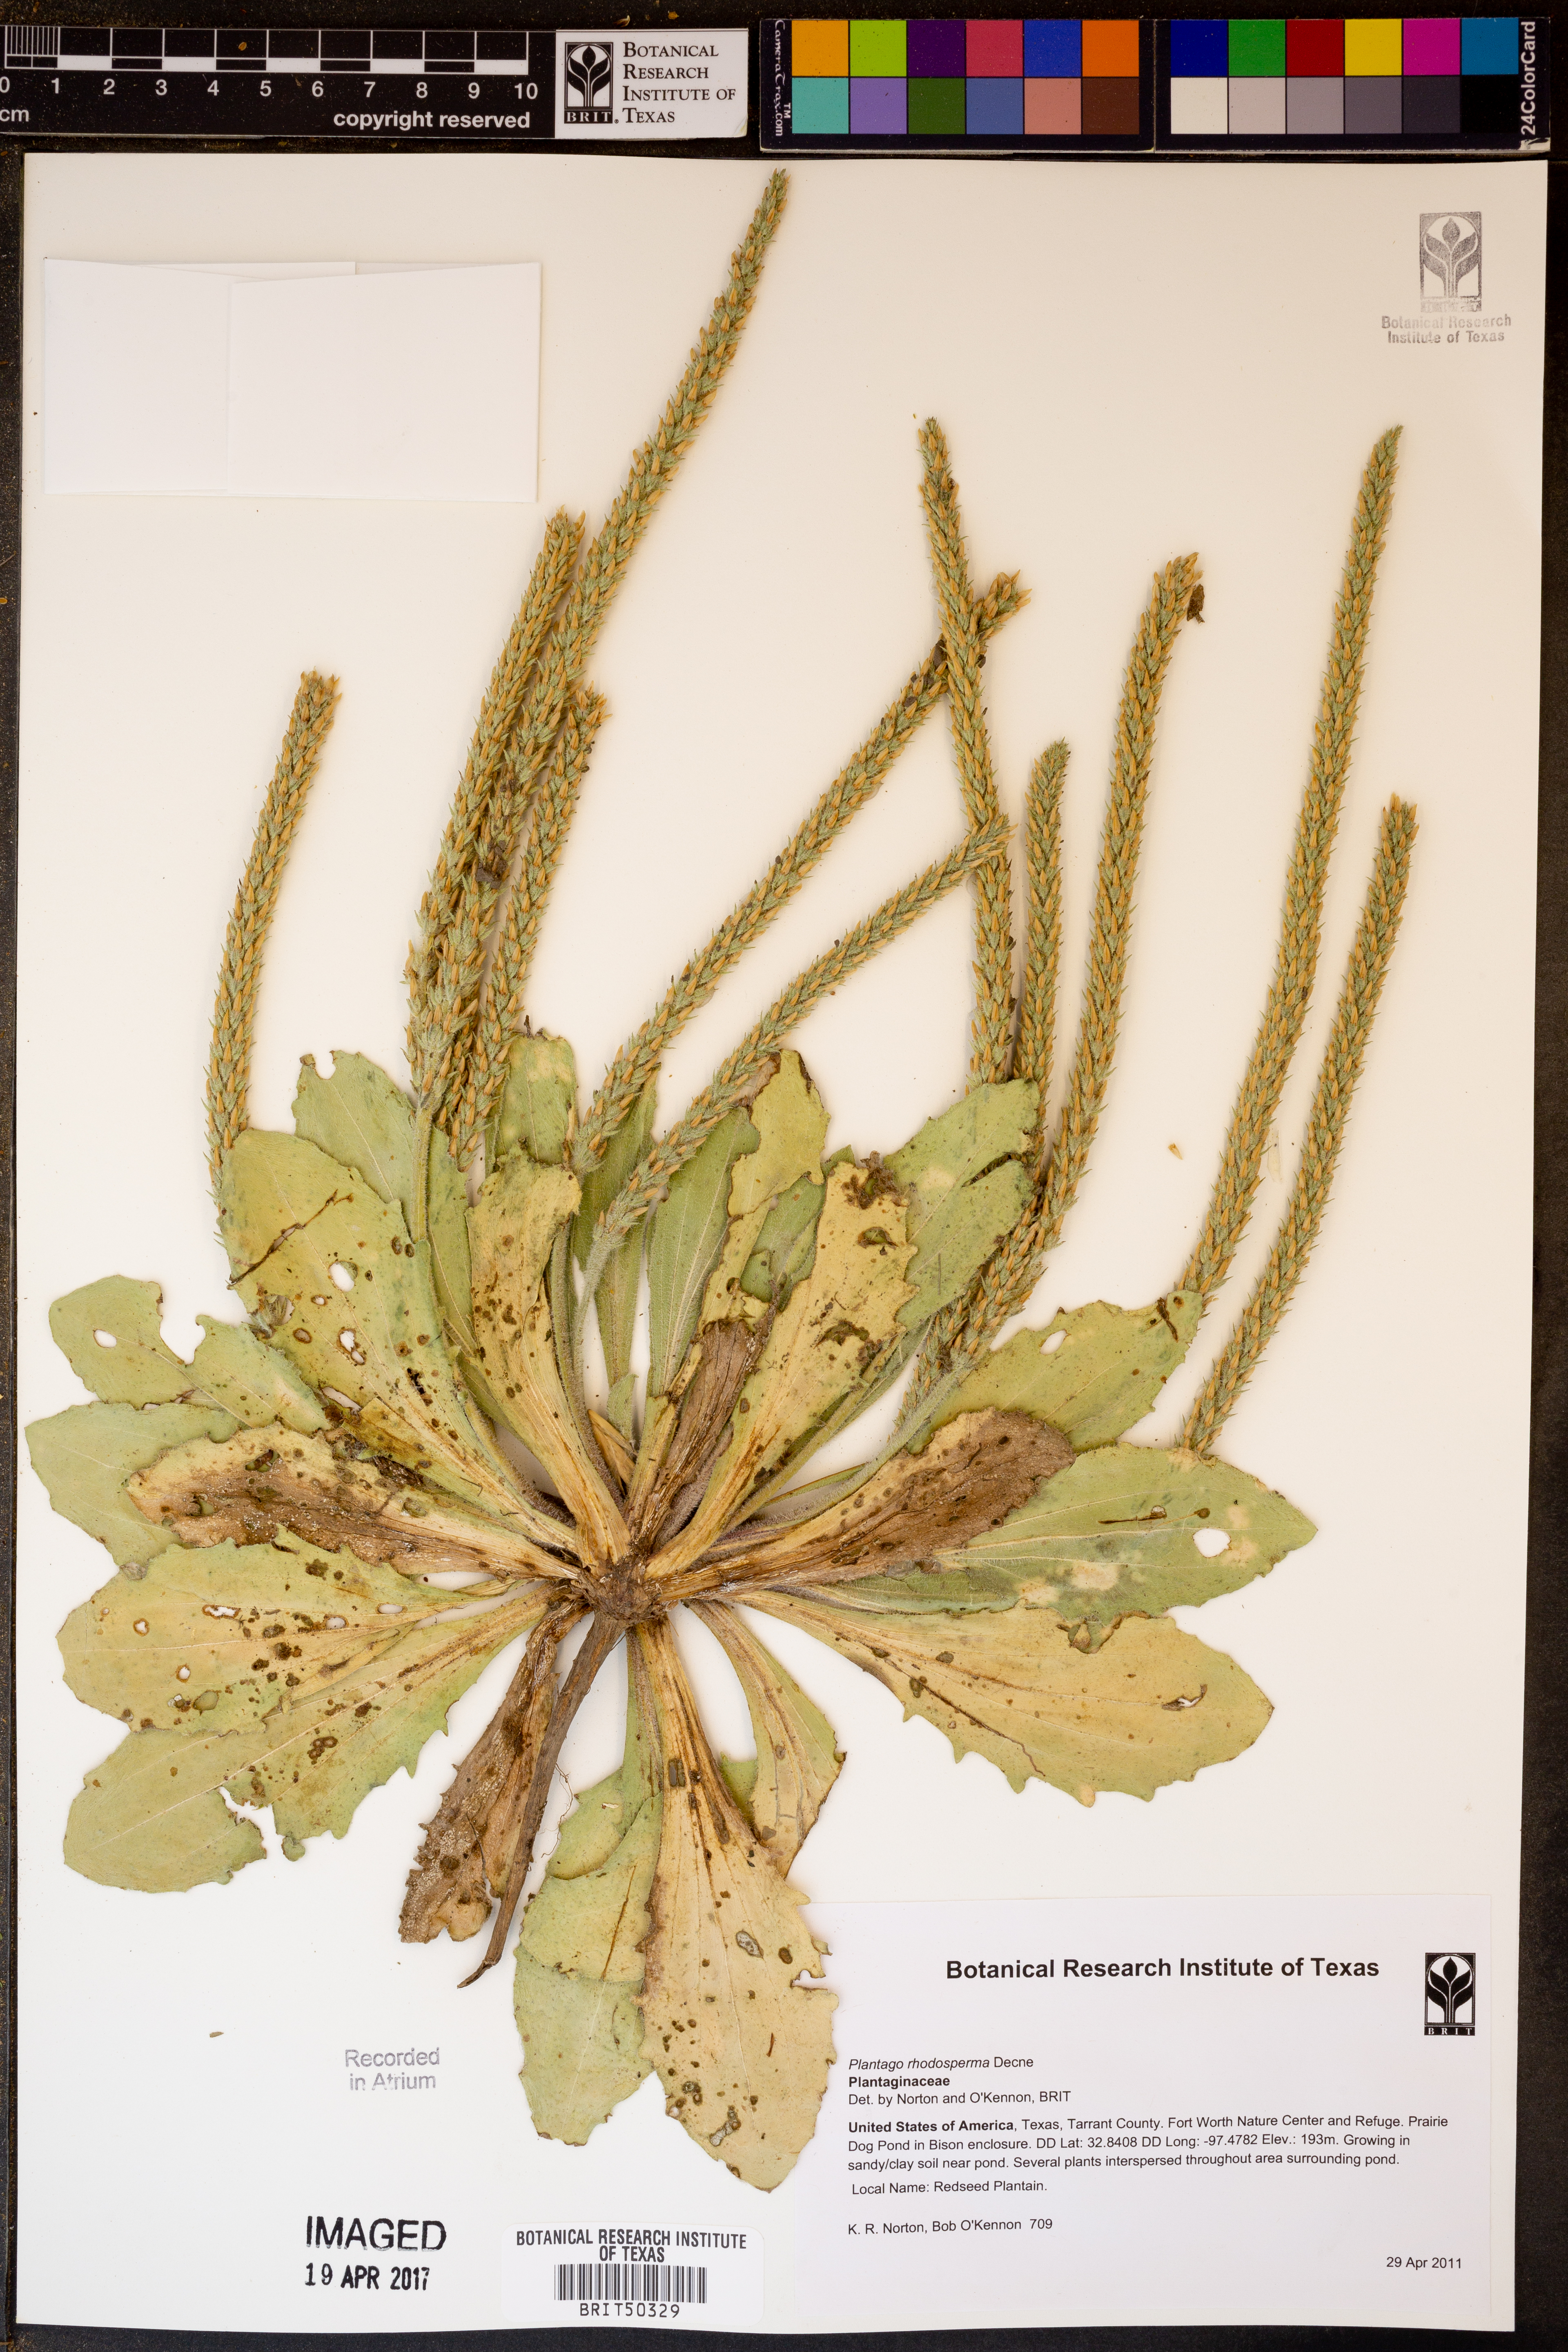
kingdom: Plantae
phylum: Tracheophyta
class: Magnoliopsida
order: Lamiales
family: Plantaginaceae
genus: Plantago
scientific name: Plantago rhodosperma
